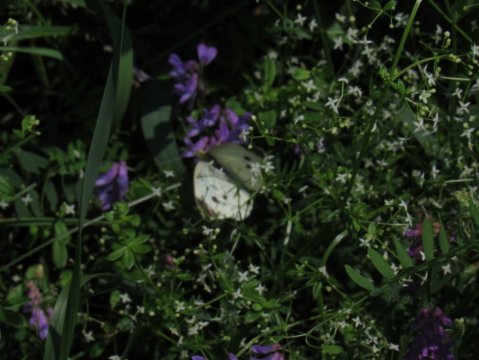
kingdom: Animalia
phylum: Arthropoda
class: Insecta
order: Lepidoptera
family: Pieridae
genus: Pieris
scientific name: Pieris rapae
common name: Cabbage White
